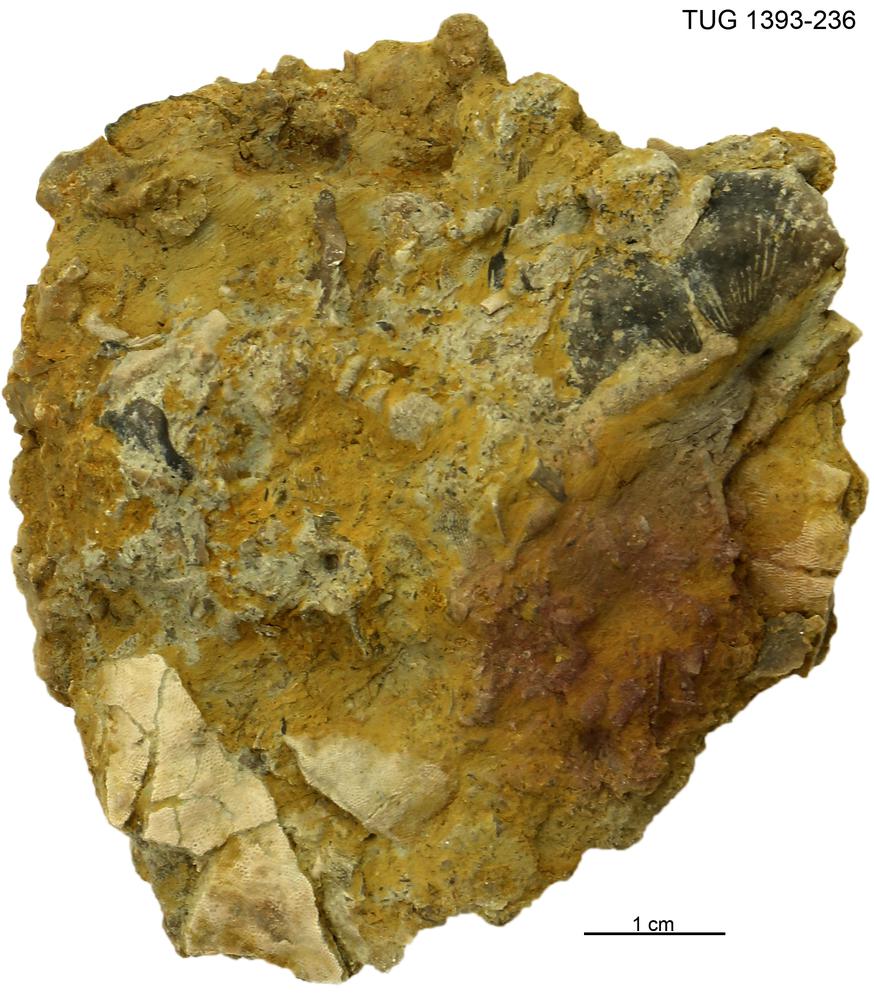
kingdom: Animalia
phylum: Brachiopoda
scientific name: Brachiopoda
